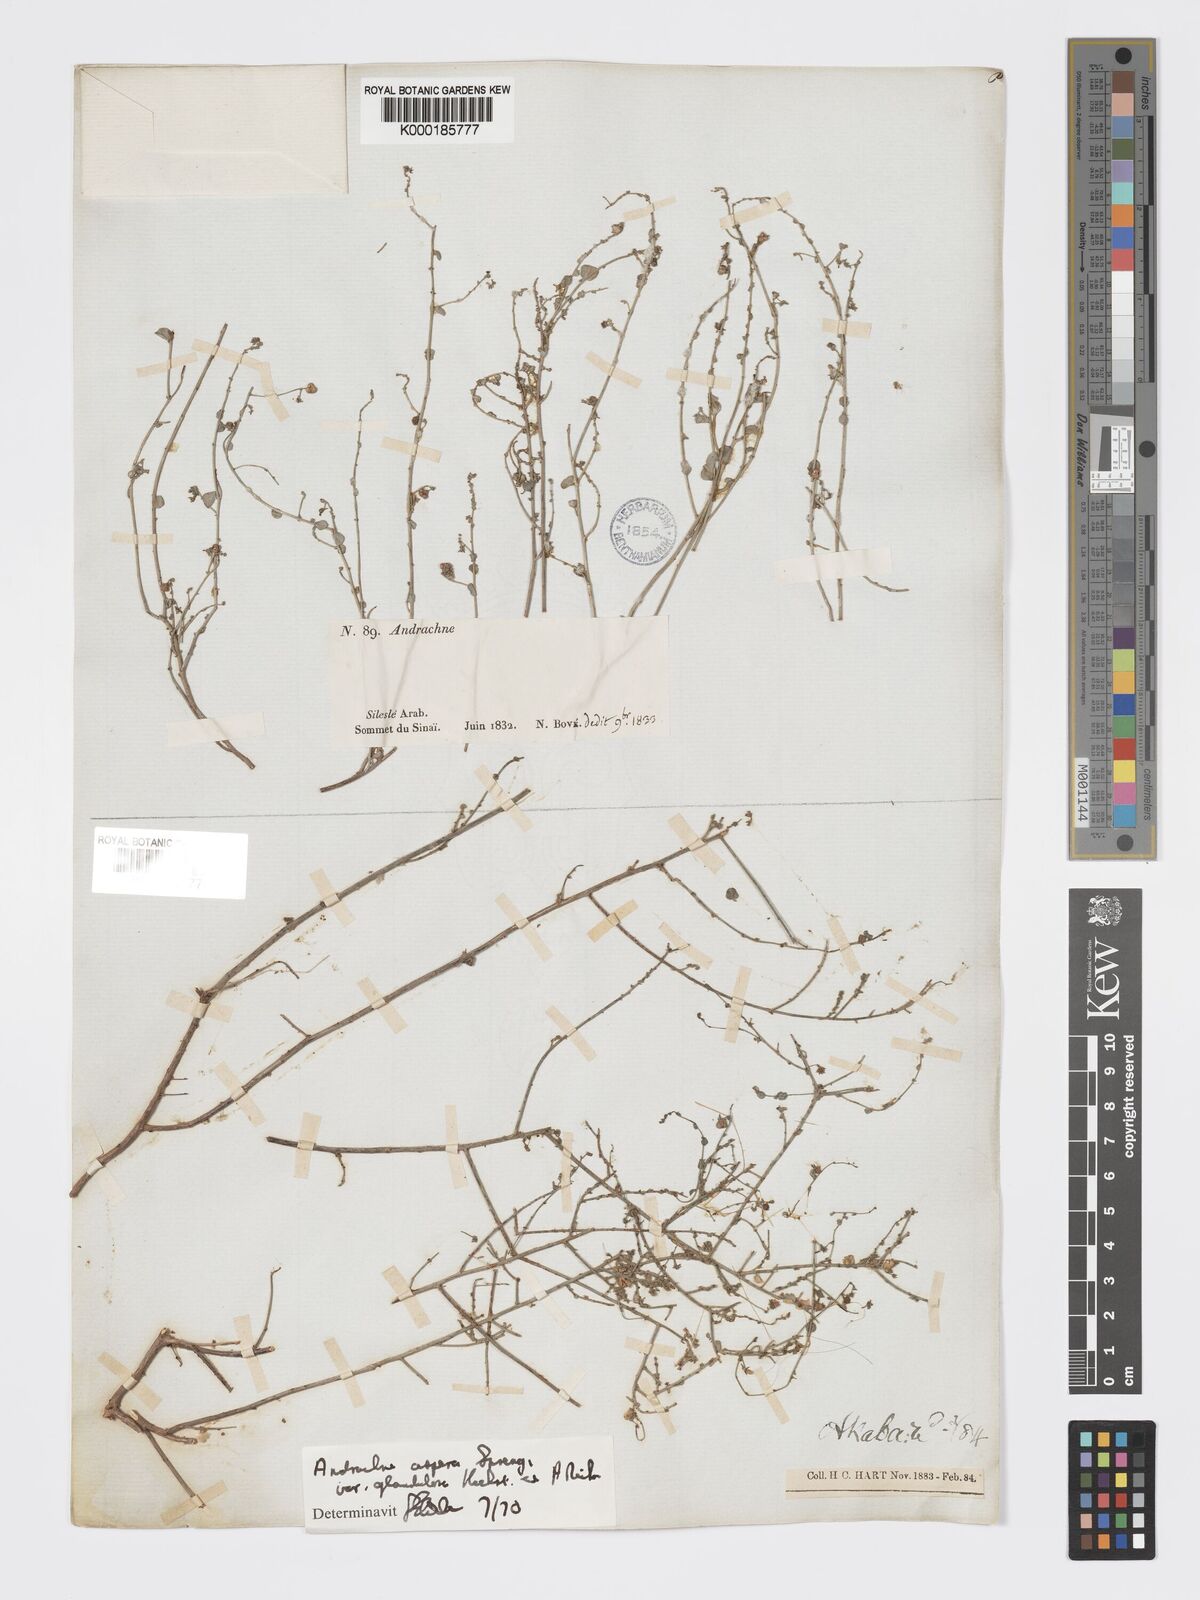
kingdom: Plantae
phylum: Tracheophyta
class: Magnoliopsida
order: Malpighiales
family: Phyllanthaceae
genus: Andrachne
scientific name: Andrachne aspera
